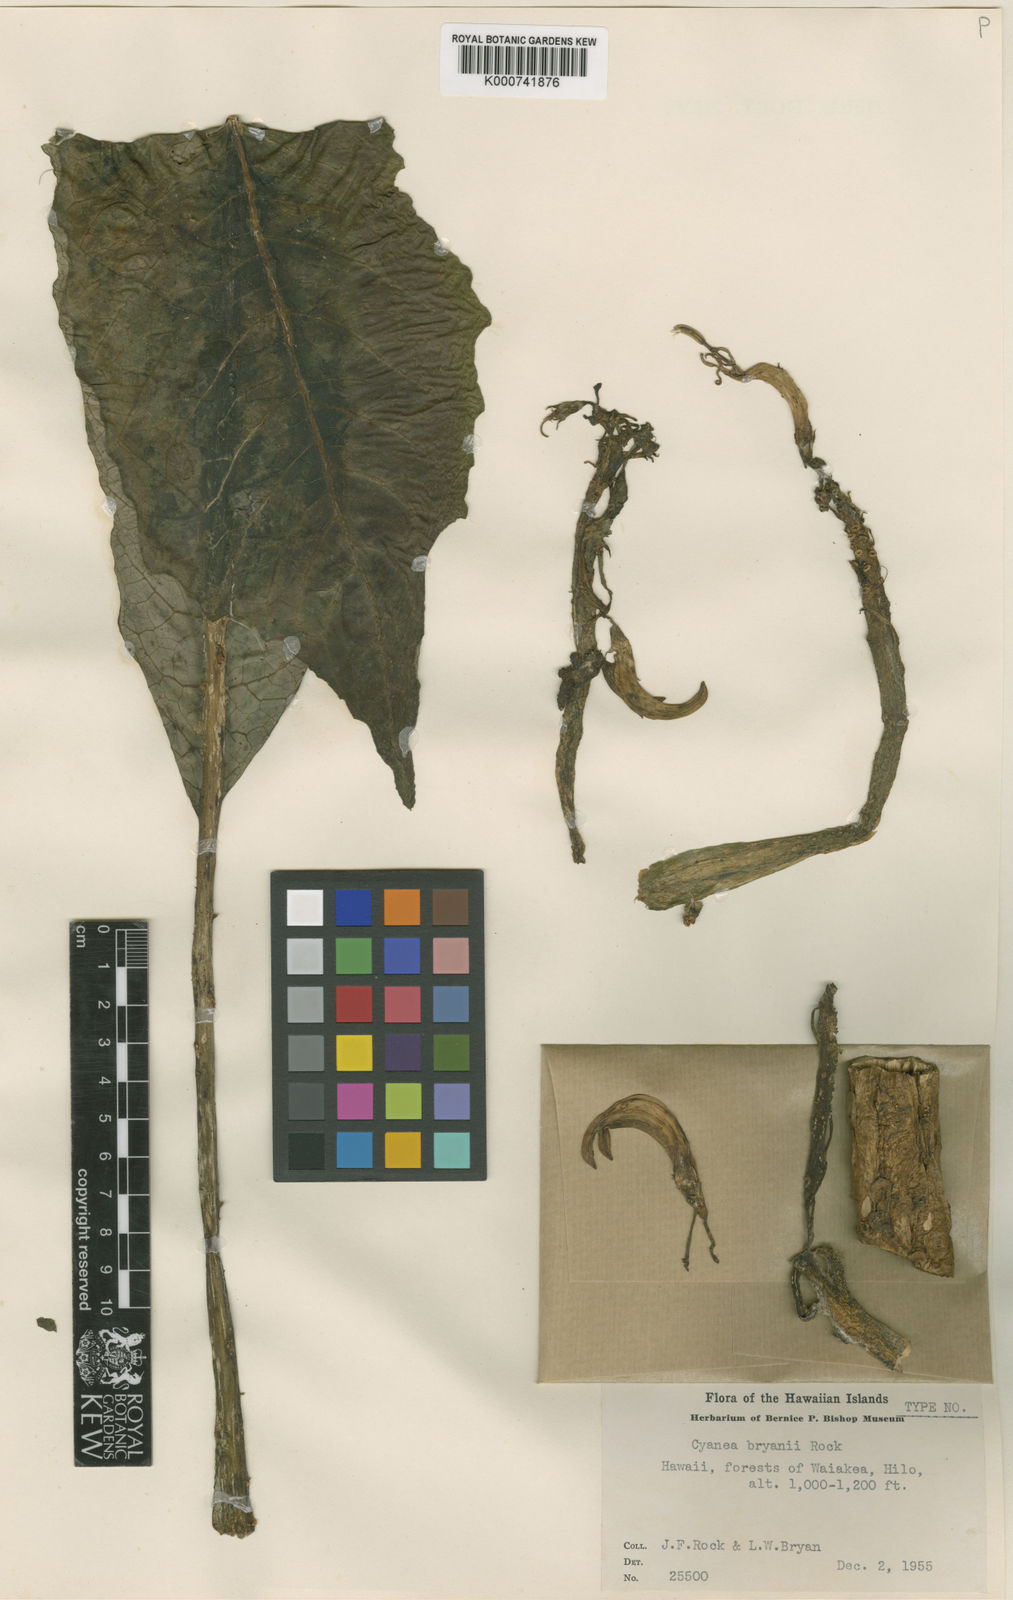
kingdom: Plantae
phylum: Tracheophyta
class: Magnoliopsida
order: Asterales
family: Campanulaceae
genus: Cyanea
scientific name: Cyanea platyphylla
